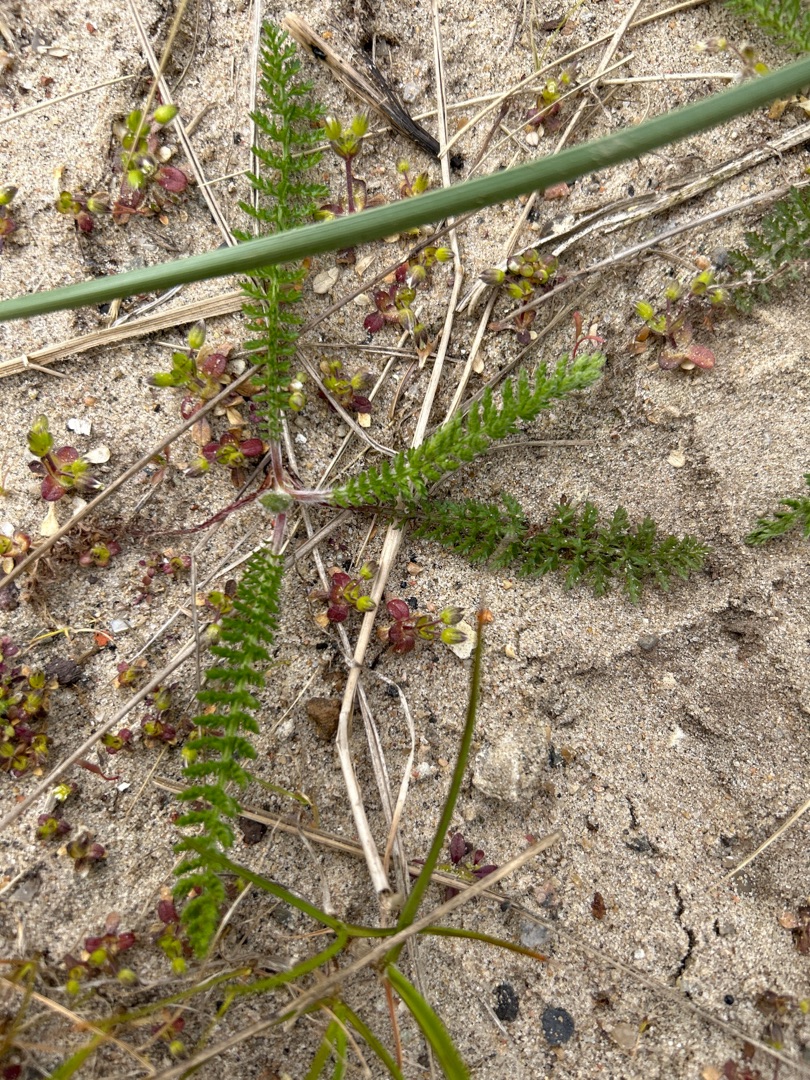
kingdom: Plantae
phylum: Tracheophyta
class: Magnoliopsida
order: Asterales
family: Asteraceae
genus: Achillea
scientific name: Achillea millefolium
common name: Almindelig røllike
